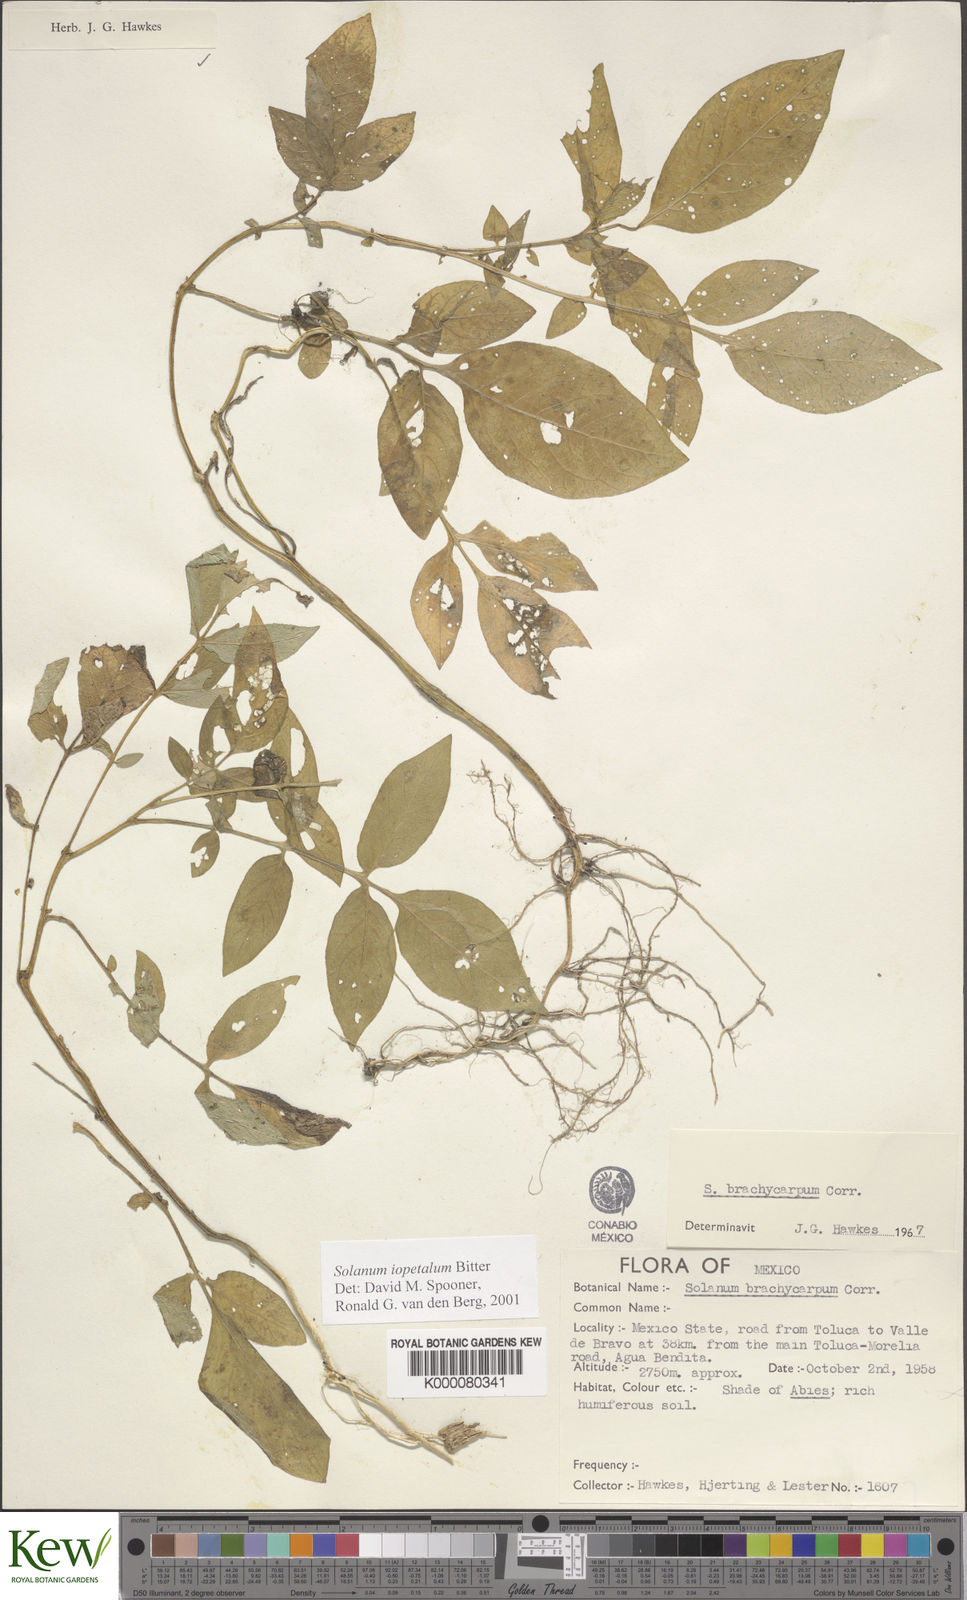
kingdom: Plantae
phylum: Tracheophyta
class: Magnoliopsida
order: Solanales
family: Solanaceae
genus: Solanum
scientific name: Solanum iopetalum
